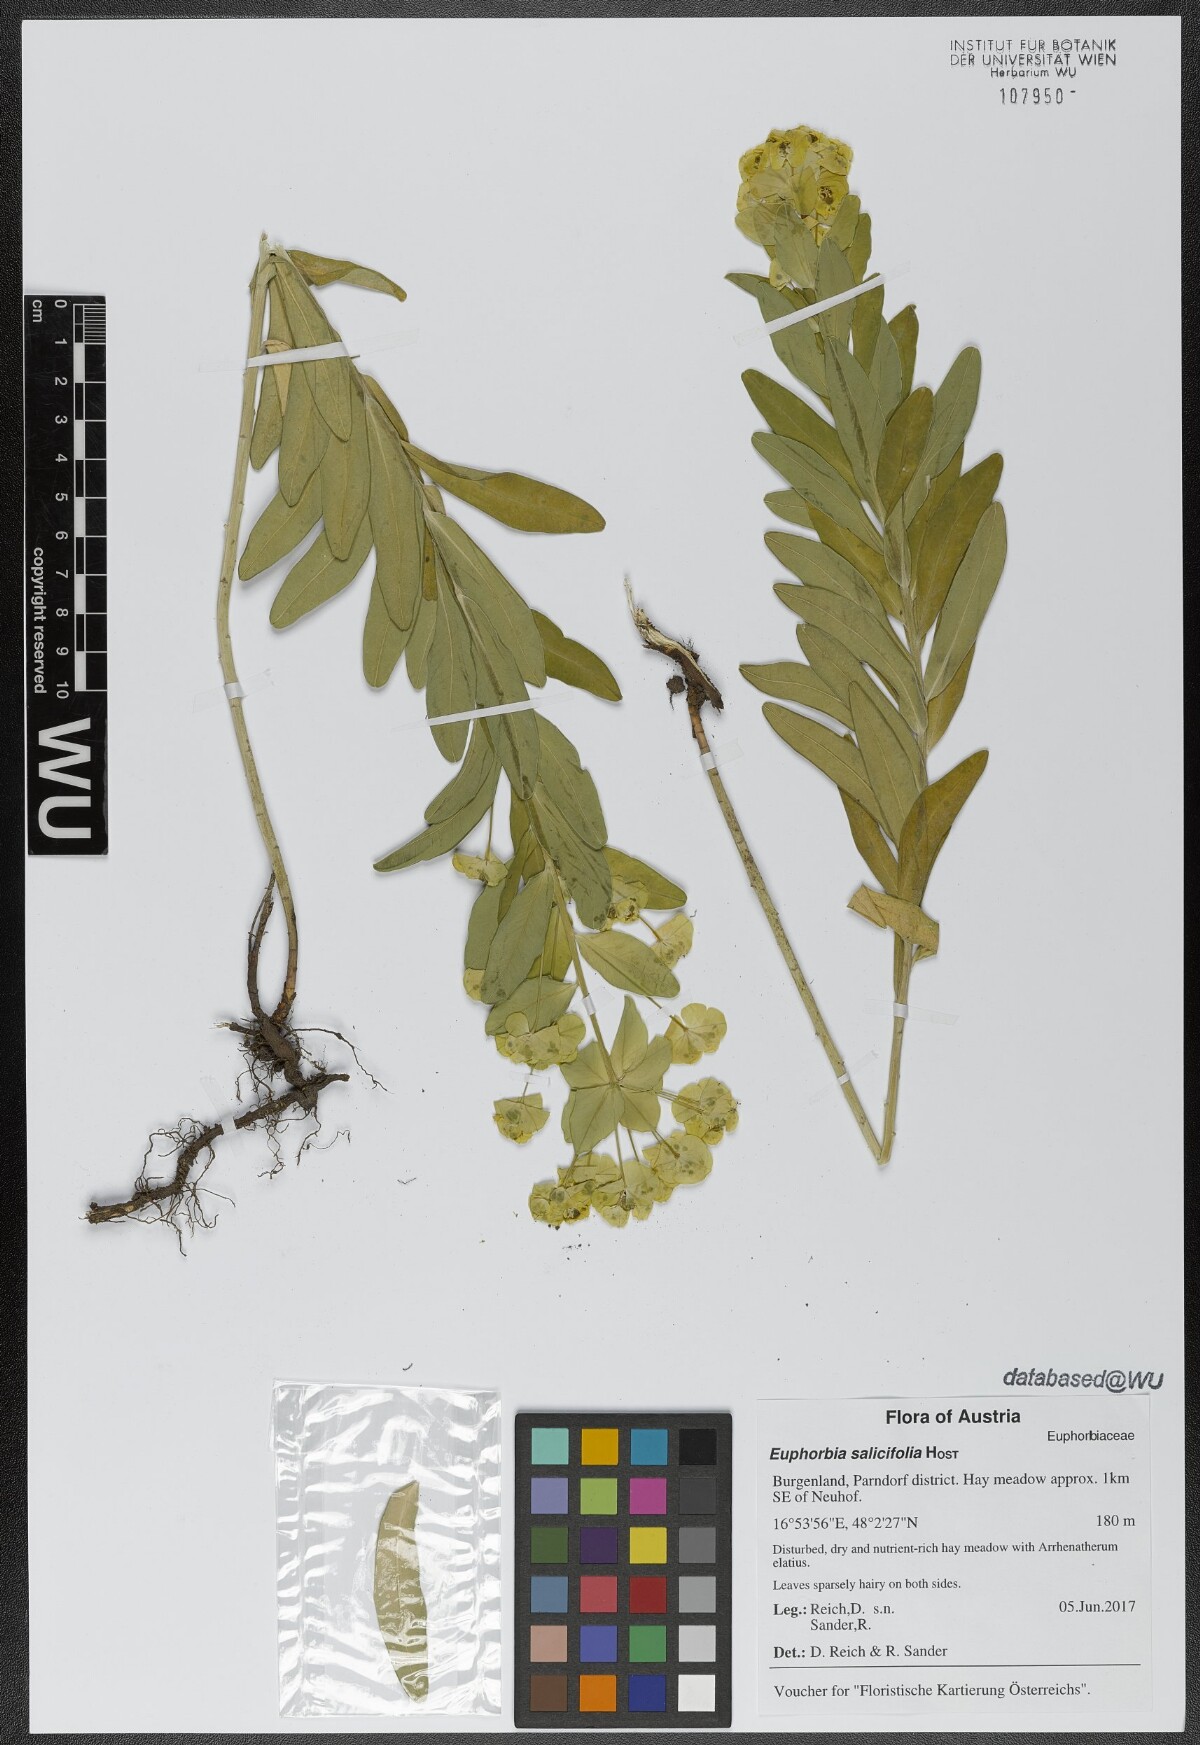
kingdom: Plantae
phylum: Tracheophyta
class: Magnoliopsida
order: Malpighiales
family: Euphorbiaceae
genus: Euphorbia
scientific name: Euphorbia salicifolia
